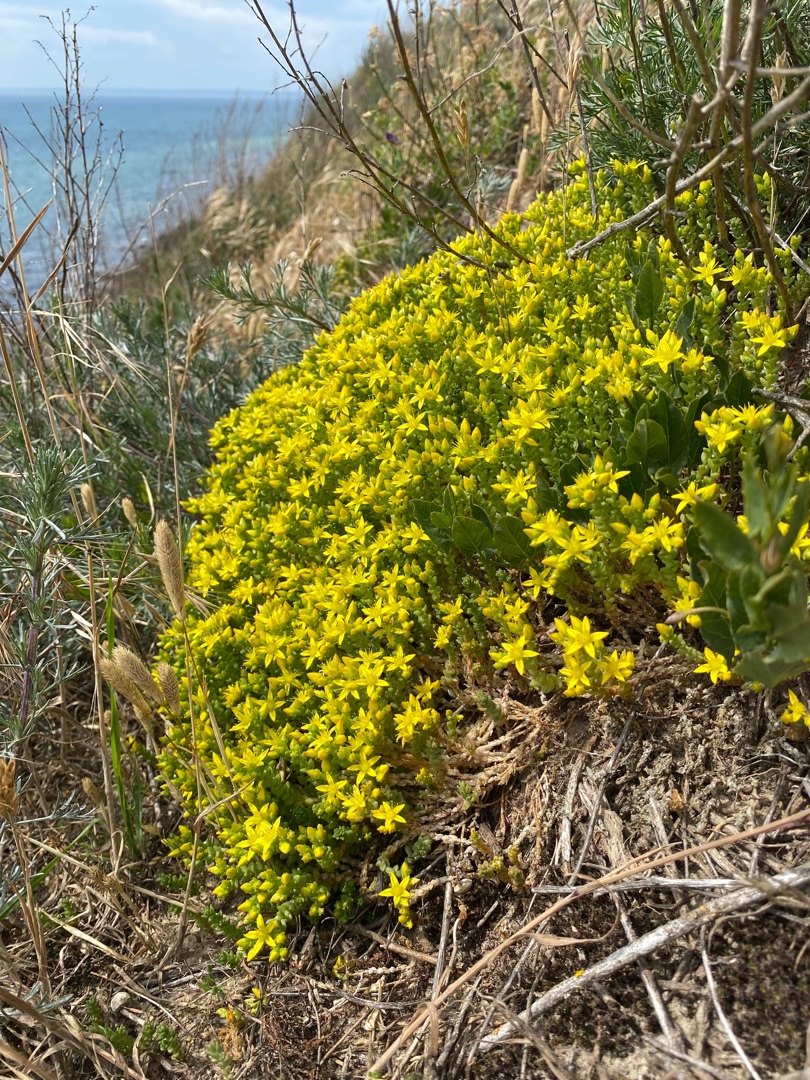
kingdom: Plantae
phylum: Tracheophyta
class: Magnoliopsida
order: Saxifragales
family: Crassulaceae
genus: Sedum
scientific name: Sedum acre
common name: Bidende stenurt
